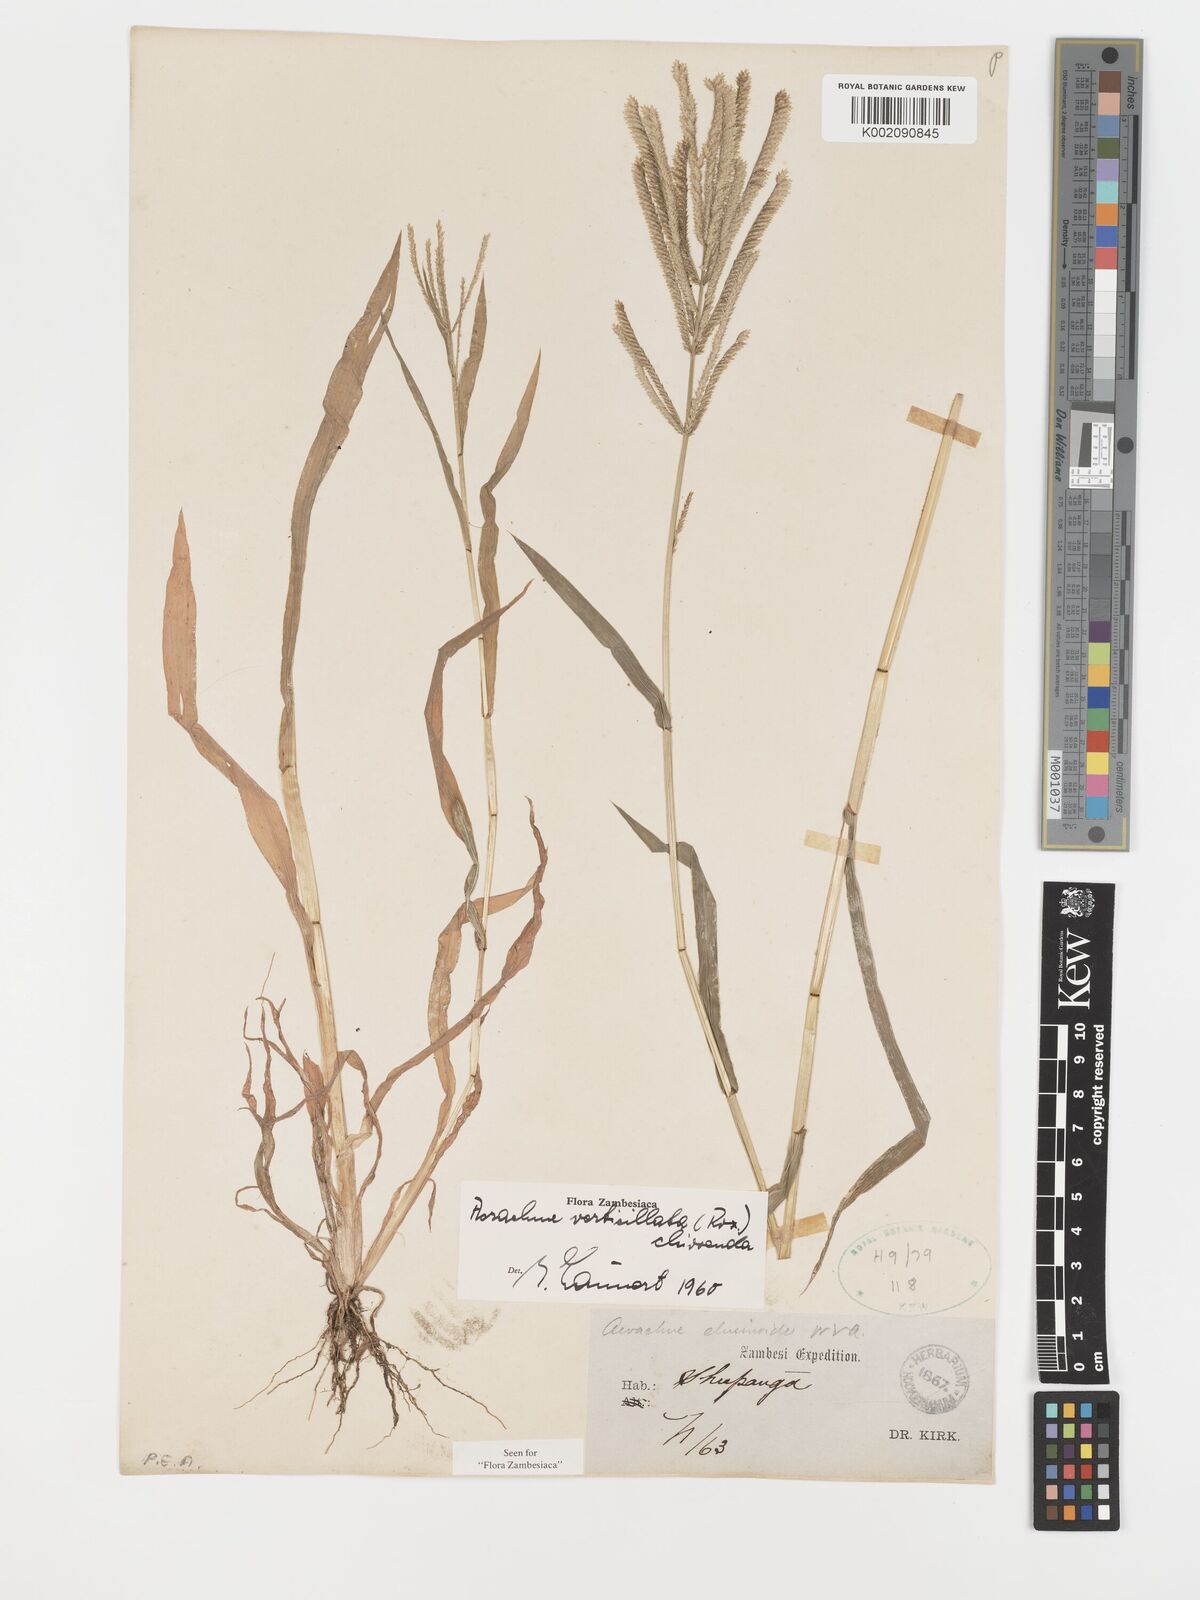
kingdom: Plantae
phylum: Tracheophyta
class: Liliopsida
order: Poales
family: Poaceae
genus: Acrachne
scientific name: Acrachne racemosa
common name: Goosegrass
